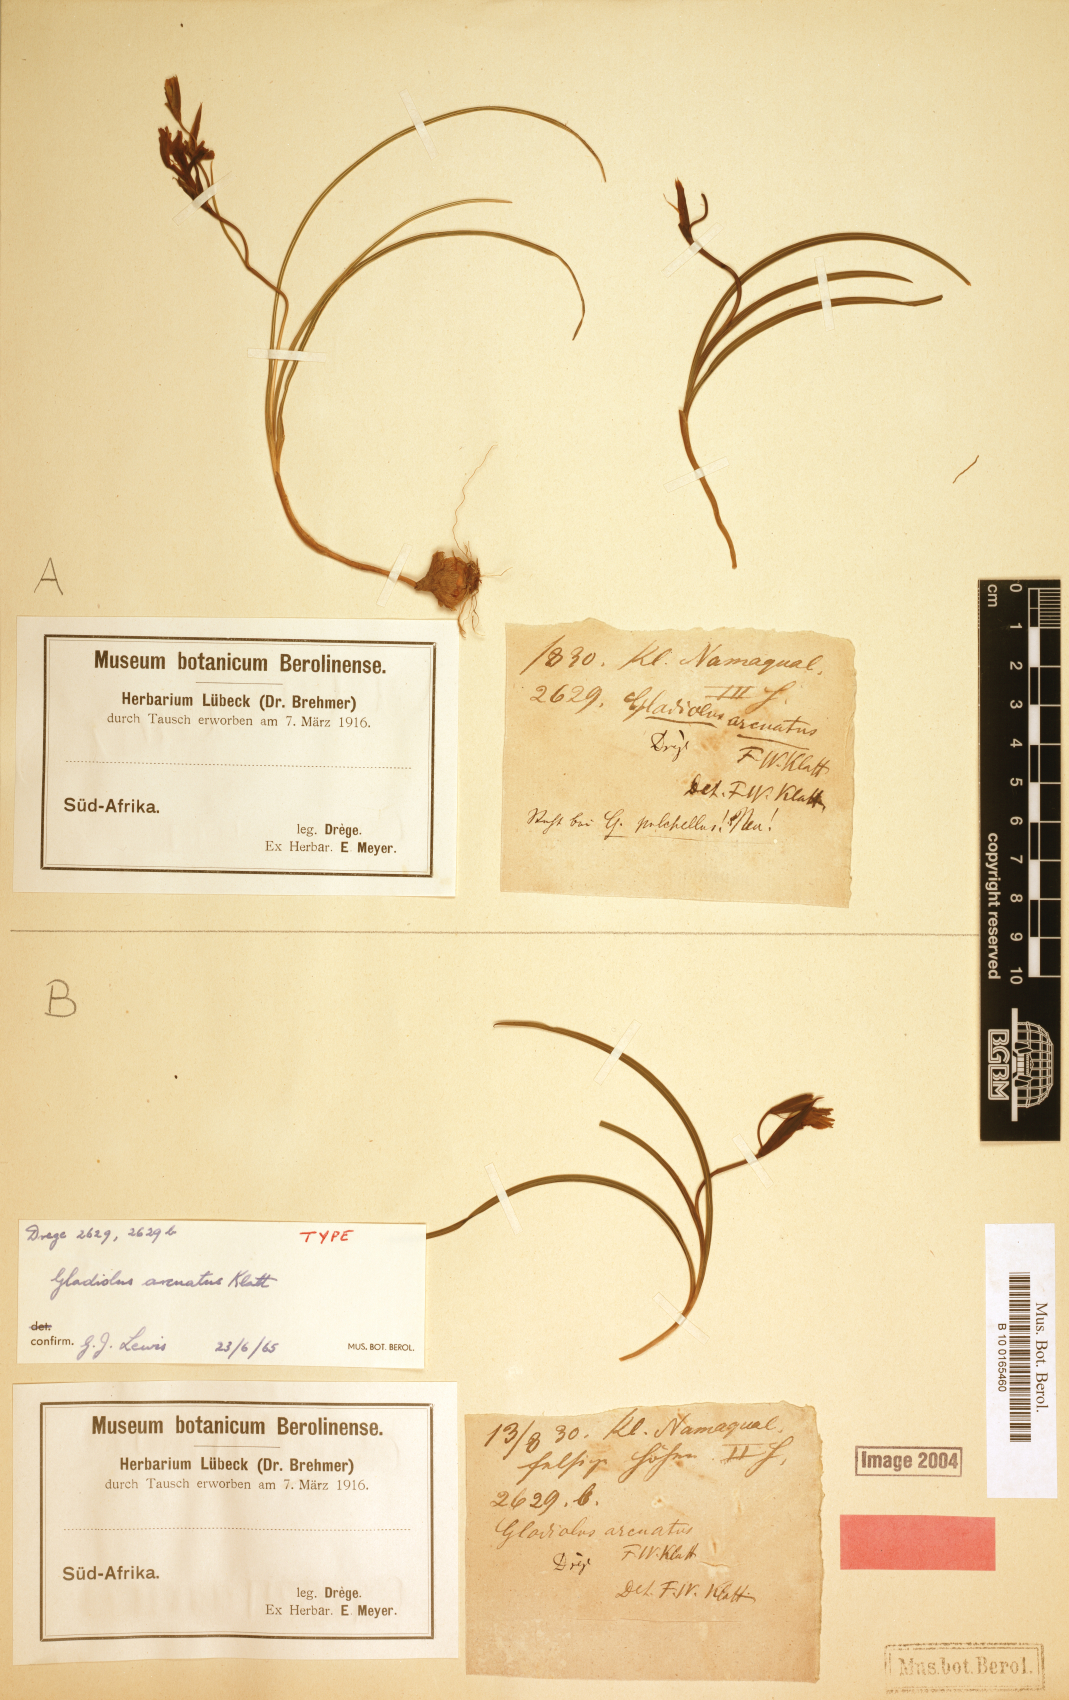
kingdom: Plantae
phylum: Tracheophyta
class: Liliopsida
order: Asparagales
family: Iridaceae
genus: Gladiolus
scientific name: Gladiolus arcuatus
